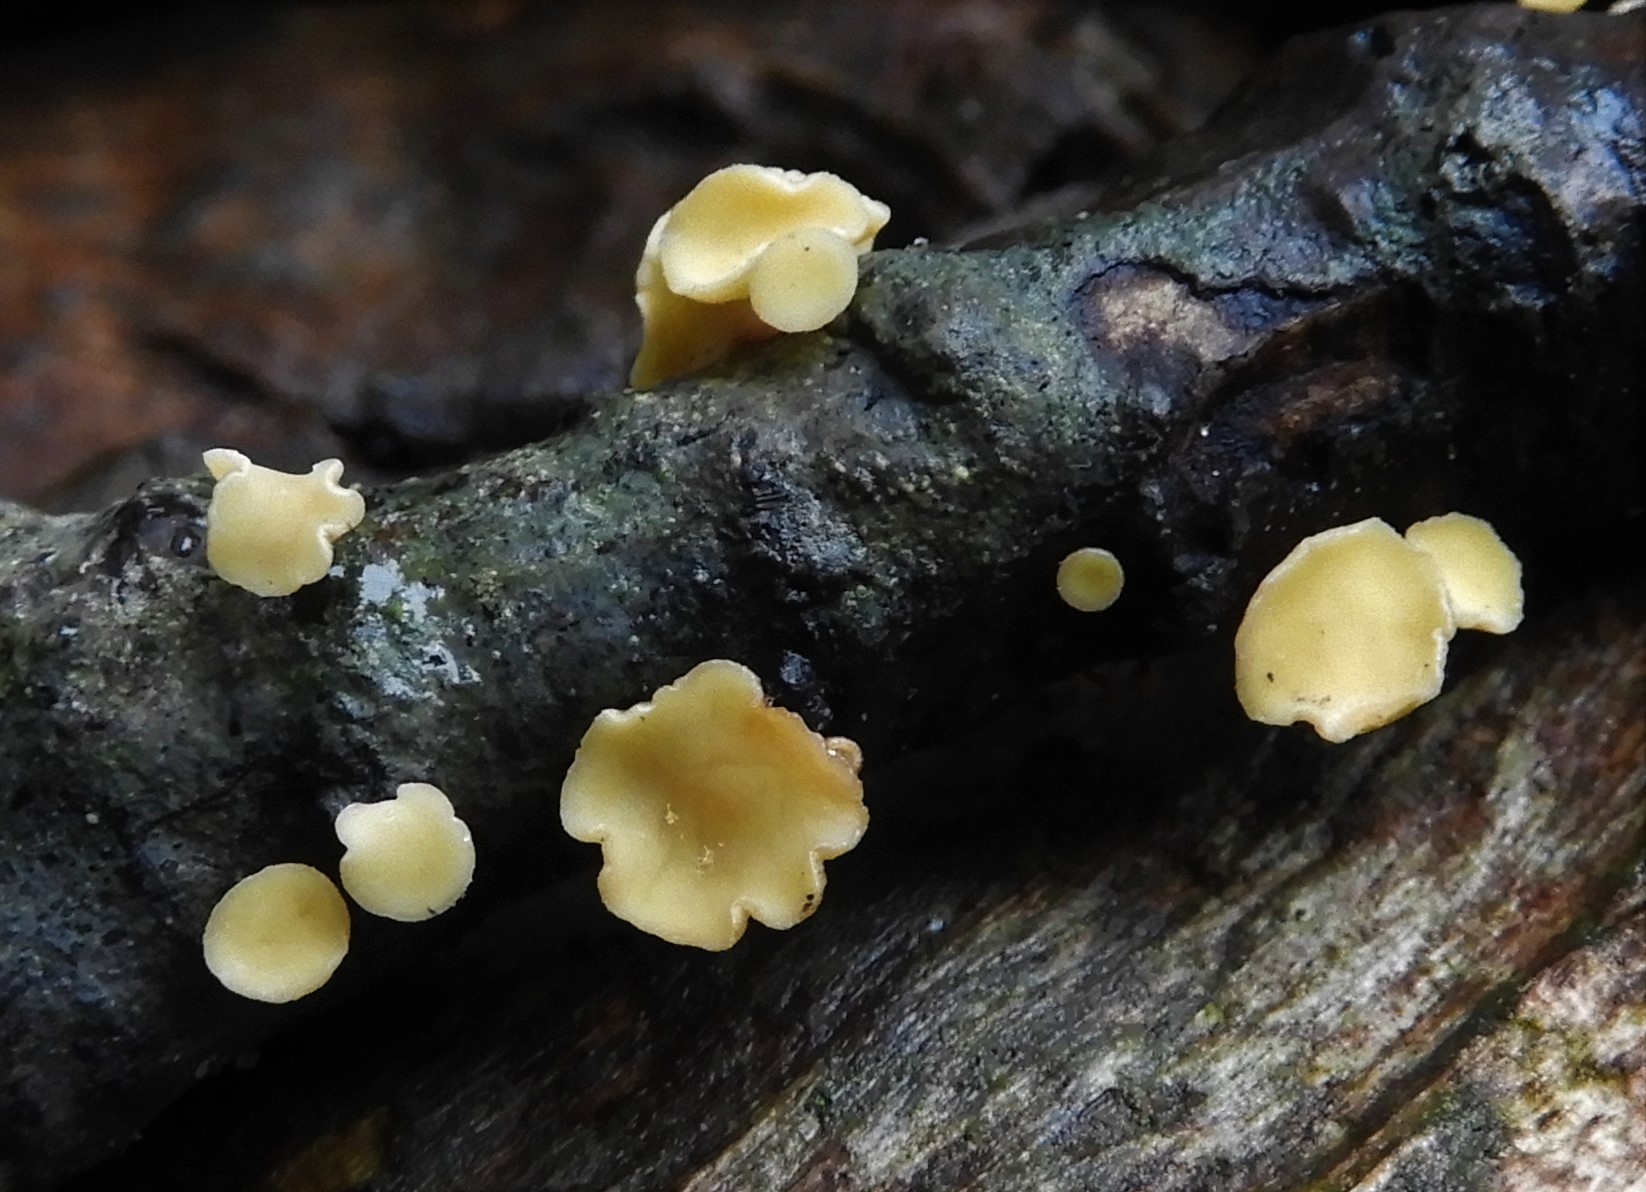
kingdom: Fungi
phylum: Ascomycota
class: Leotiomycetes
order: Helotiales
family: Helotiaceae
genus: Hymenoscyphus
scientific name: Hymenoscyphus
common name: stilkskive
